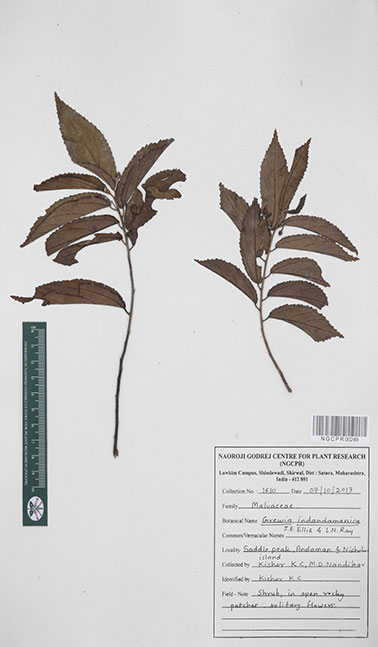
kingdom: Plantae
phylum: Tracheophyta
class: Magnoliopsida
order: Malvales
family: Malvaceae
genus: Grewia
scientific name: Grewia indandamanica
